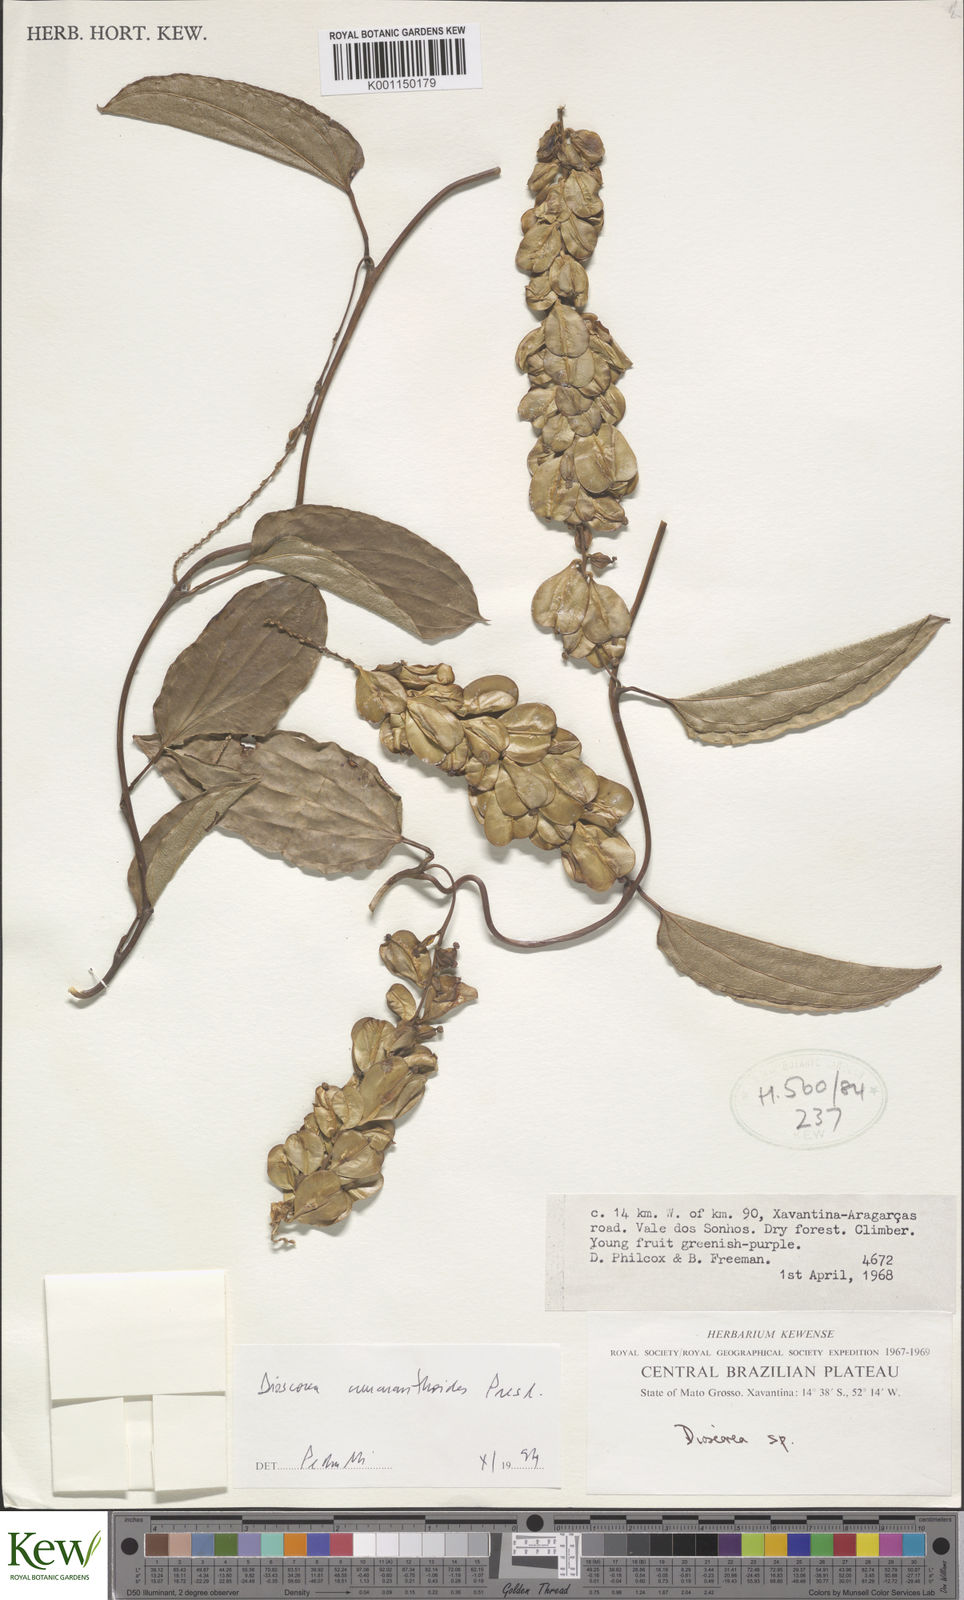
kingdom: Plantae
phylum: Tracheophyta
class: Liliopsida
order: Dioscoreales
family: Dioscoreaceae
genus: Dioscorea
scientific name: Dioscorea
